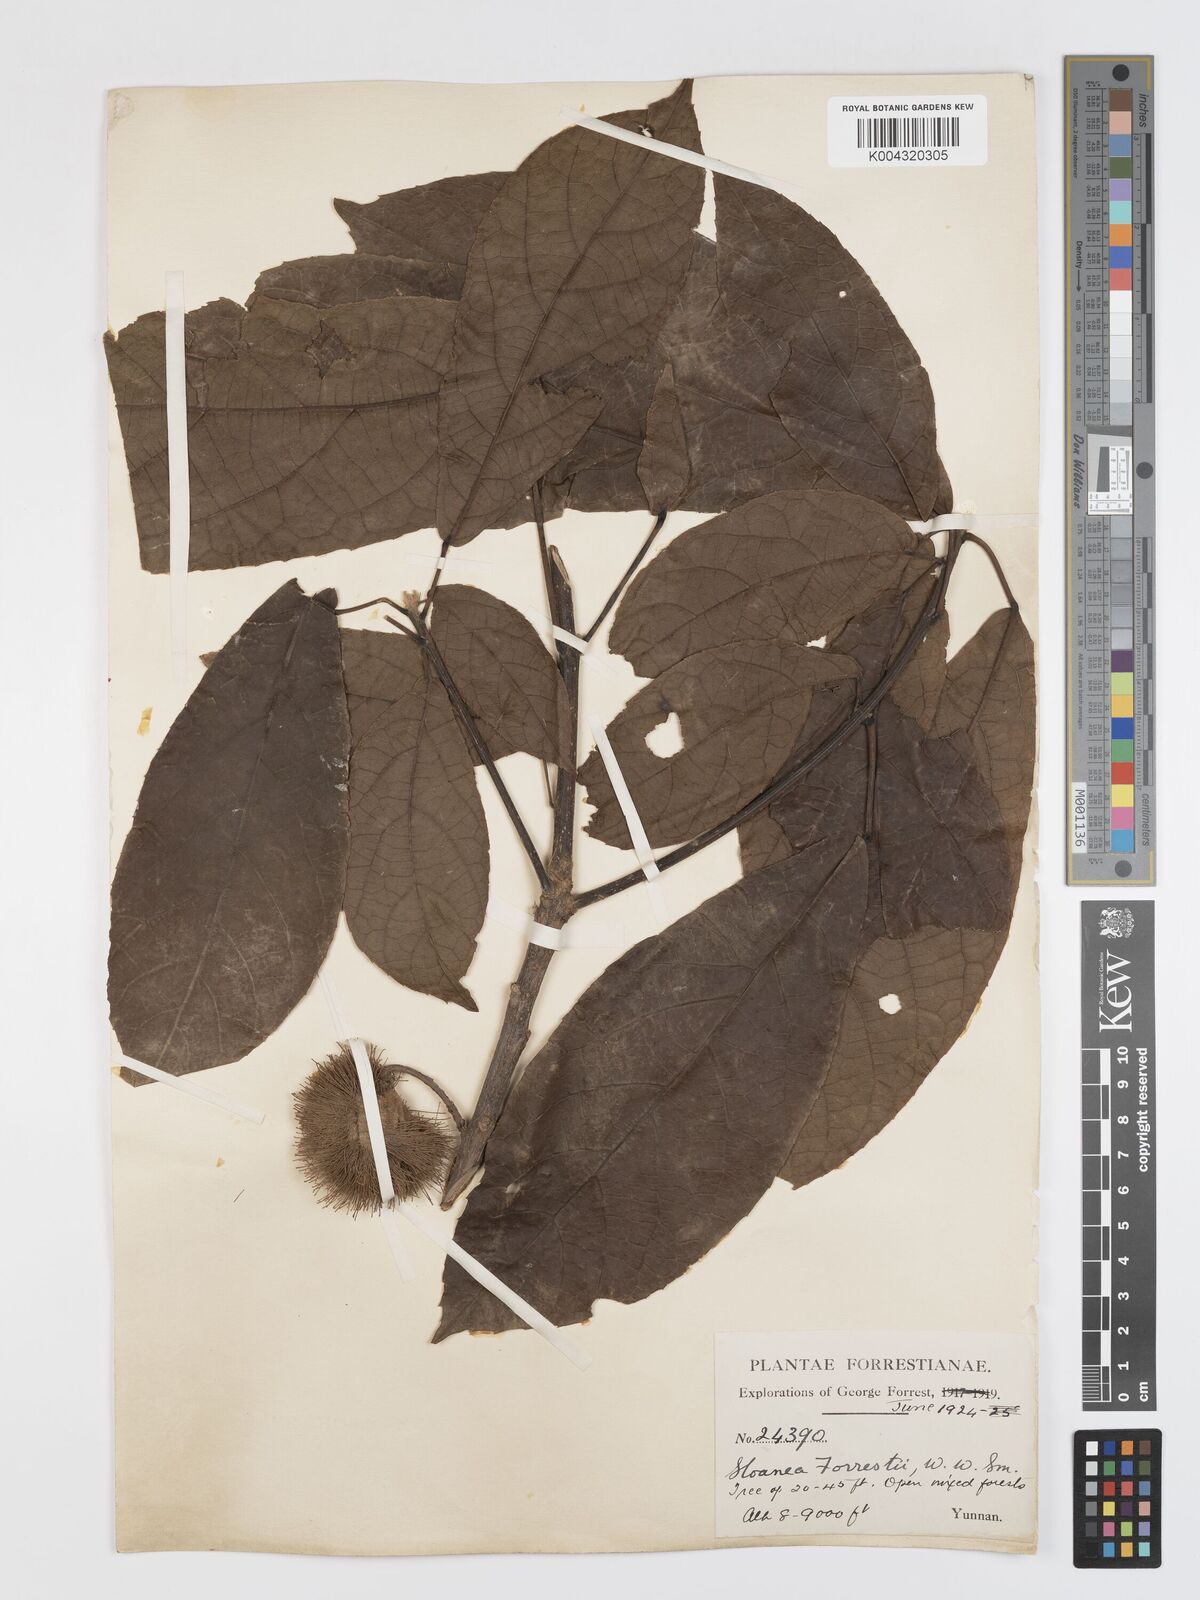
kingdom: Plantae
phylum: Tracheophyta
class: Magnoliopsida
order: Oxalidales
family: Elaeocarpaceae
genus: Sloanea
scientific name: Sloanea sterculiacea
